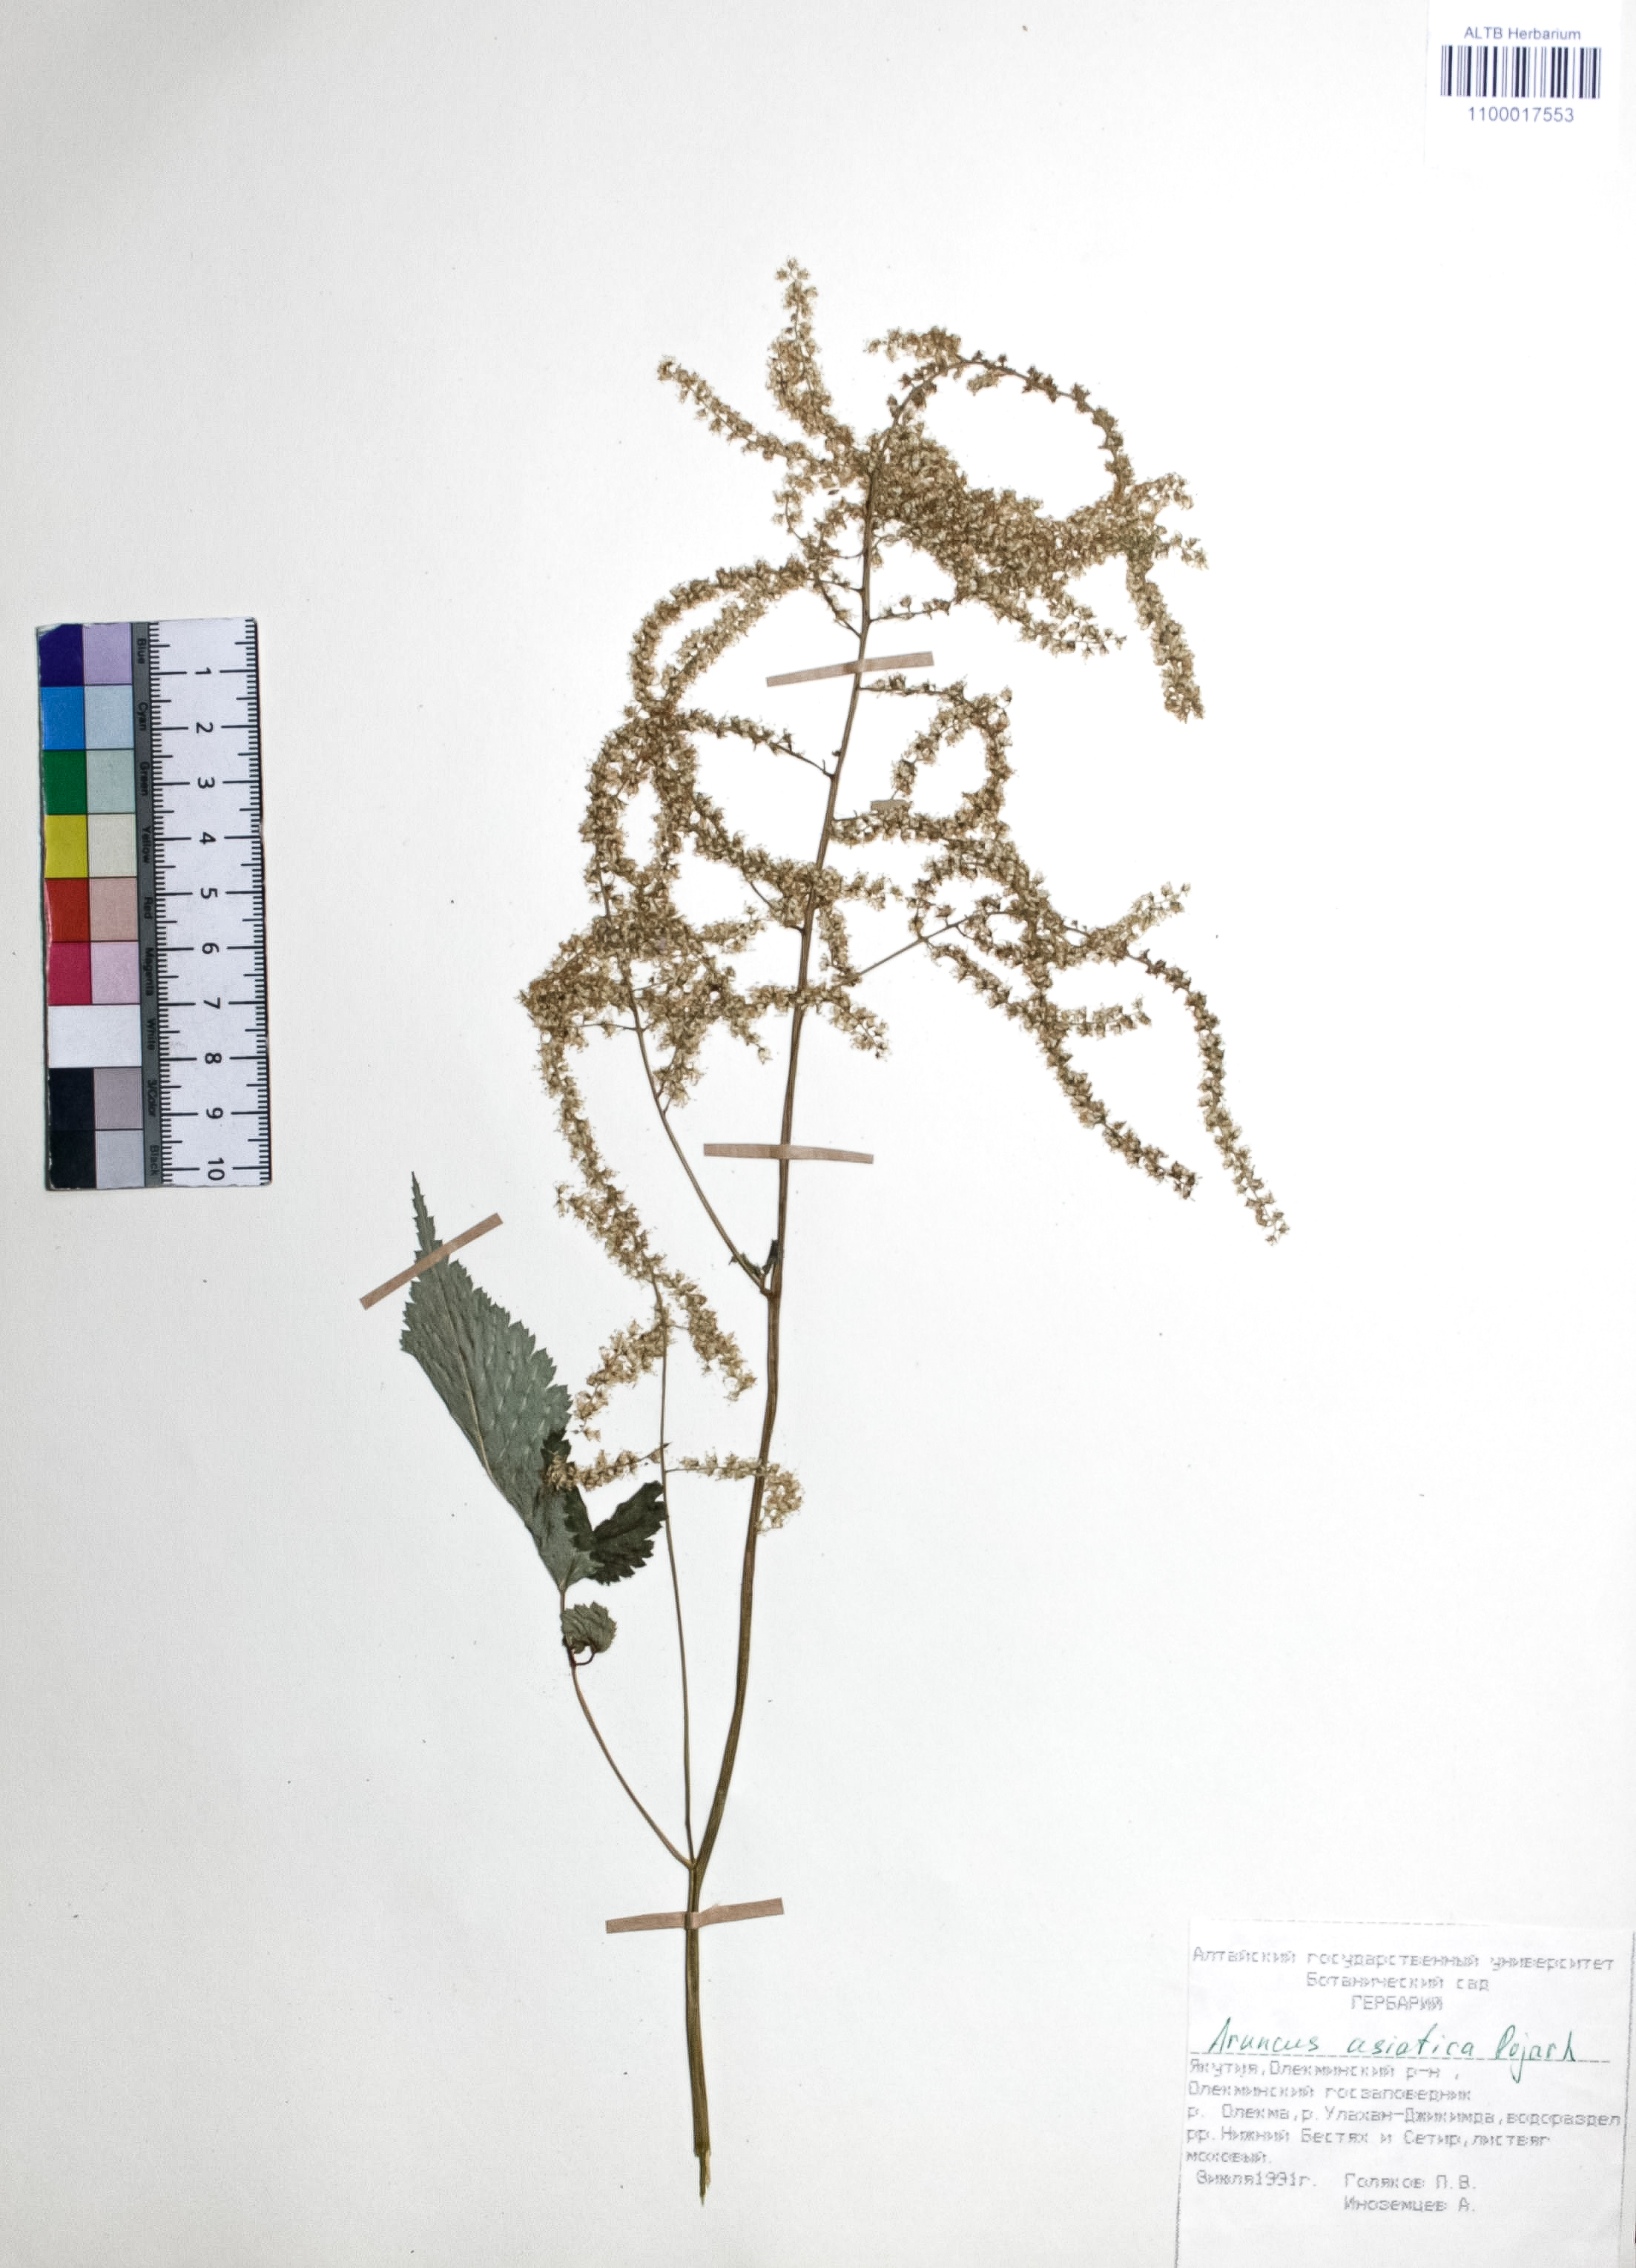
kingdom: Plantae
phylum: Tracheophyta
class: Magnoliopsida
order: Rosales
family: Rosaceae
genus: Aruncus
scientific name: Aruncus sylvester
